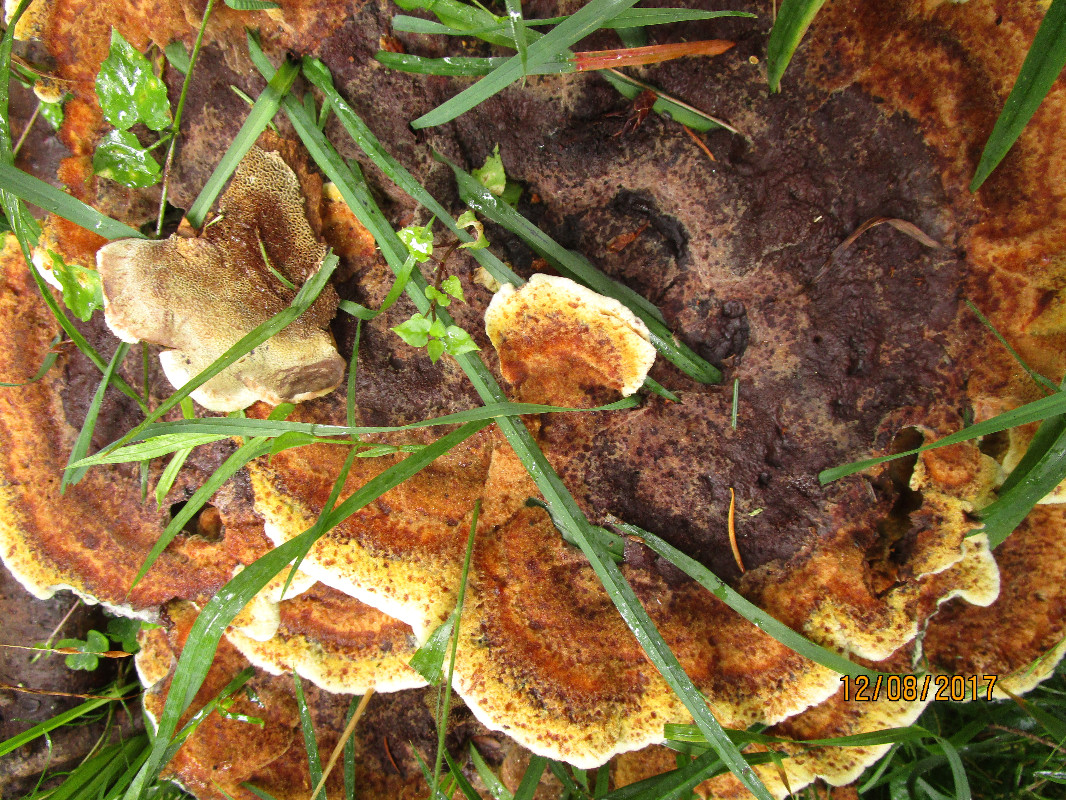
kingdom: Fungi
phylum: Basidiomycota
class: Agaricomycetes
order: Polyporales
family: Laetiporaceae
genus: Phaeolus
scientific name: Phaeolus schweinitzii
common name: brunporesvamp
